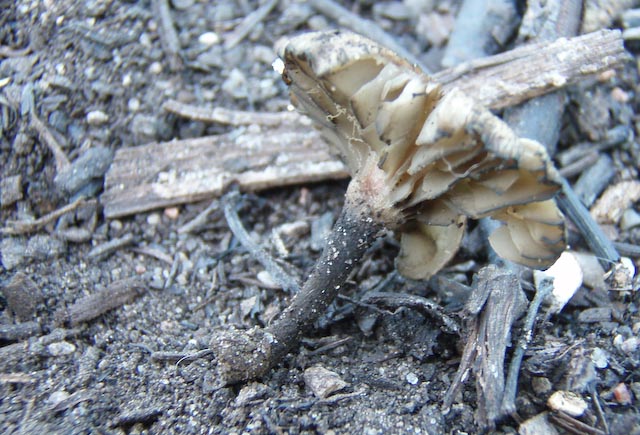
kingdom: Fungi
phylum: Basidiomycota
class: Agaricomycetes
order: Agaricales
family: Tricholomataceae
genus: Melanomphalia
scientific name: Melanomphalia nigrescens
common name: sørgehat
